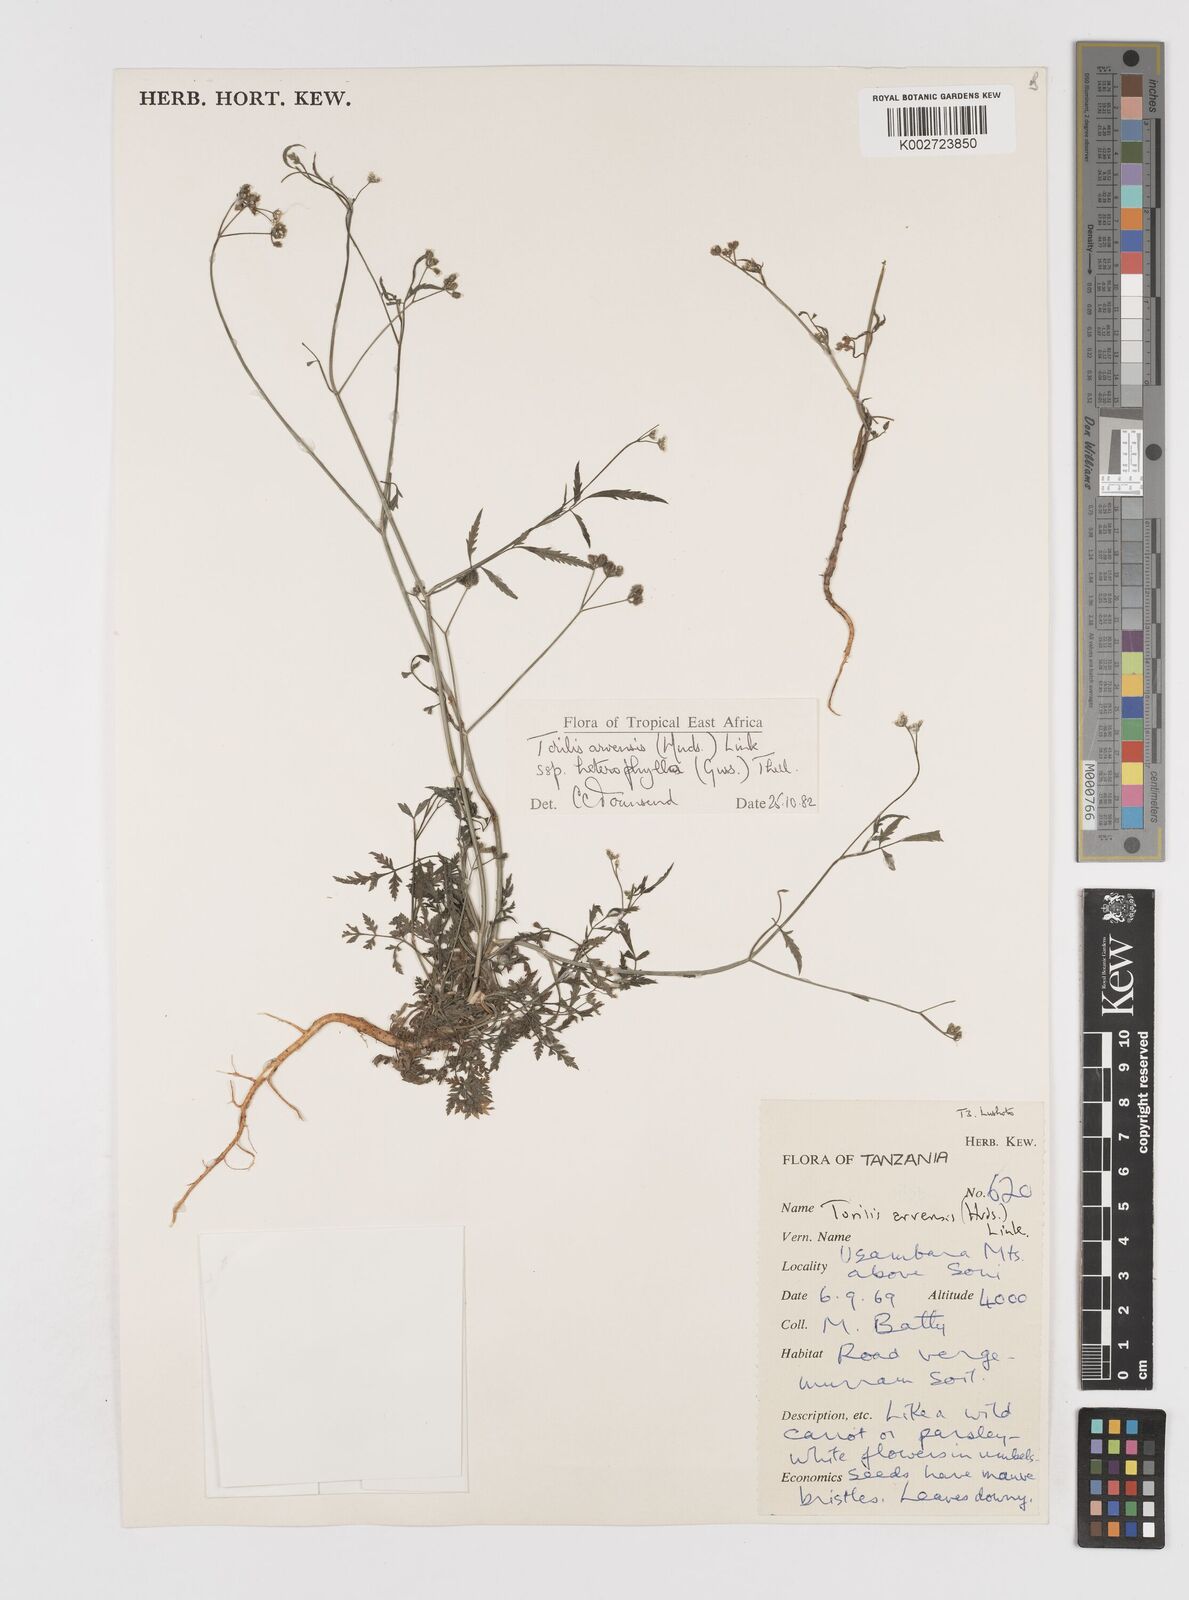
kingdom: Plantae
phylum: Tracheophyta
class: Magnoliopsida
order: Apiales
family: Apiaceae
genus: Torilis
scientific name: Torilis arvensis
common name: Spreading hedge-parsley
